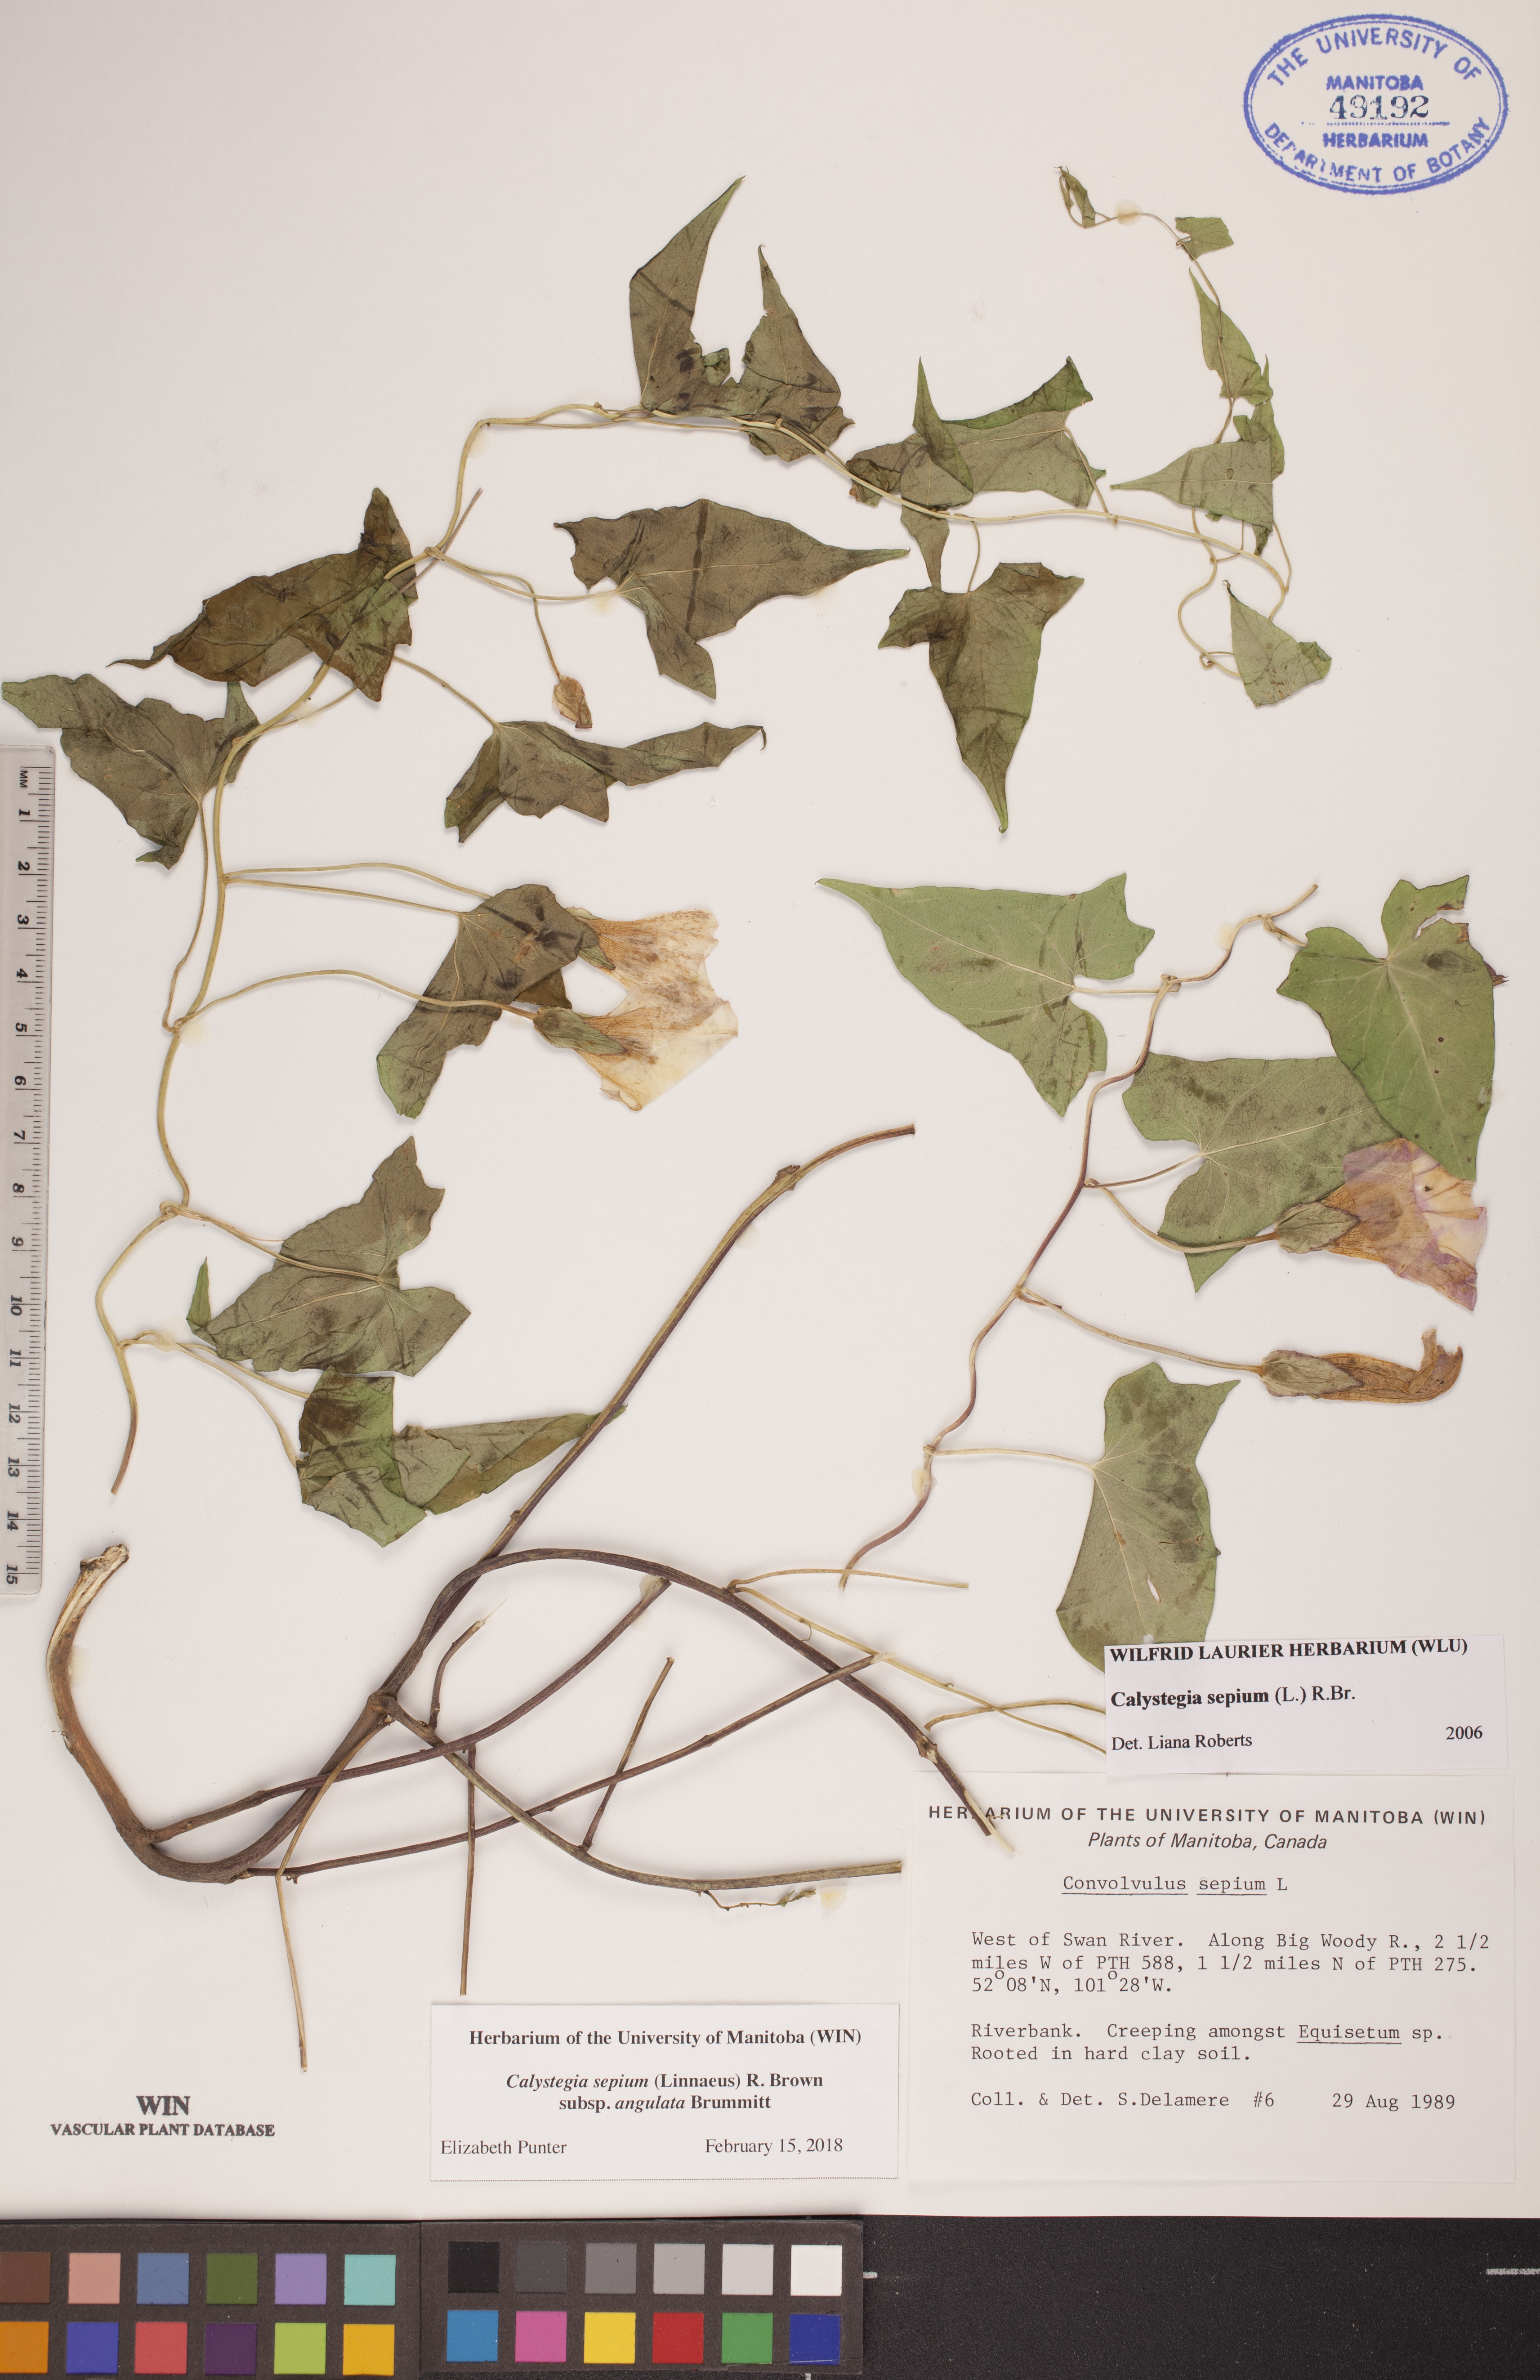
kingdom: Plantae
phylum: Tracheophyta
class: Magnoliopsida
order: Solanales
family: Convolvulaceae
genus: Calystegia
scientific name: Calystegia sepium
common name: Hedge bindweed
